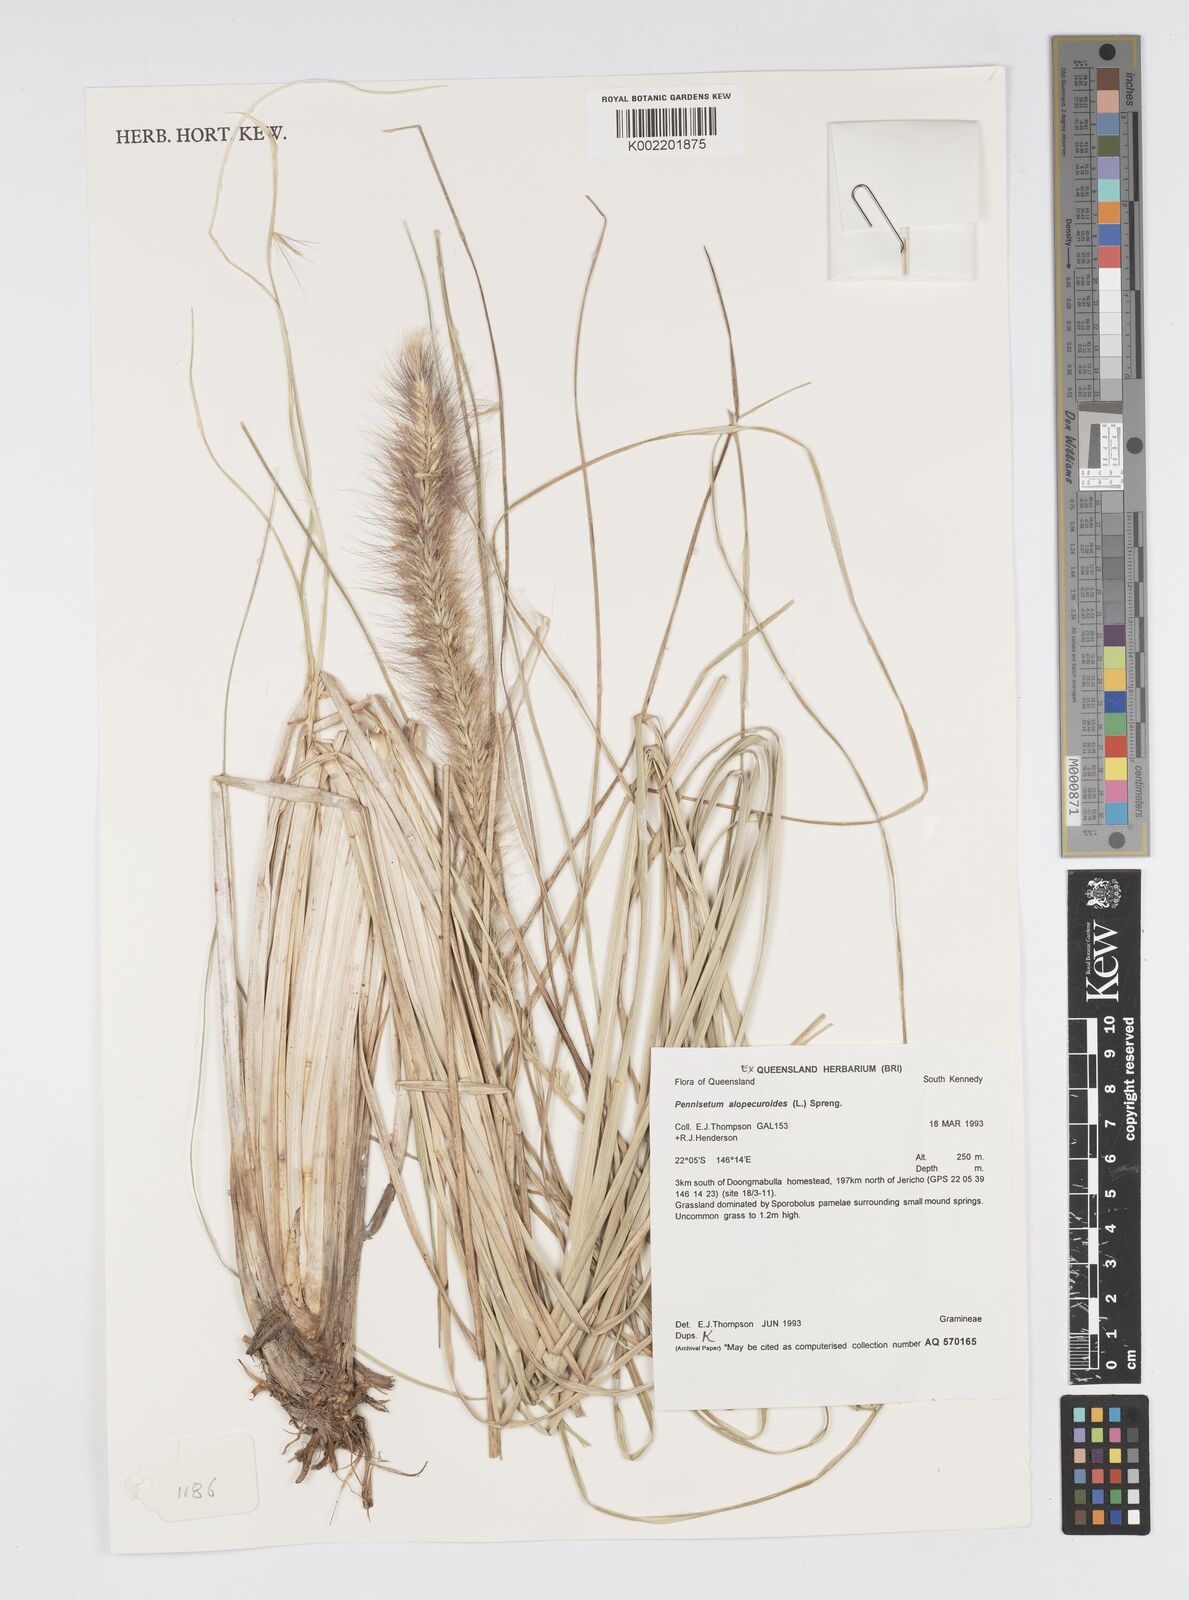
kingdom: Plantae
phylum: Tracheophyta
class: Liliopsida
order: Poales
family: Poaceae
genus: Cenchrus
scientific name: Cenchrus alopecuroides
